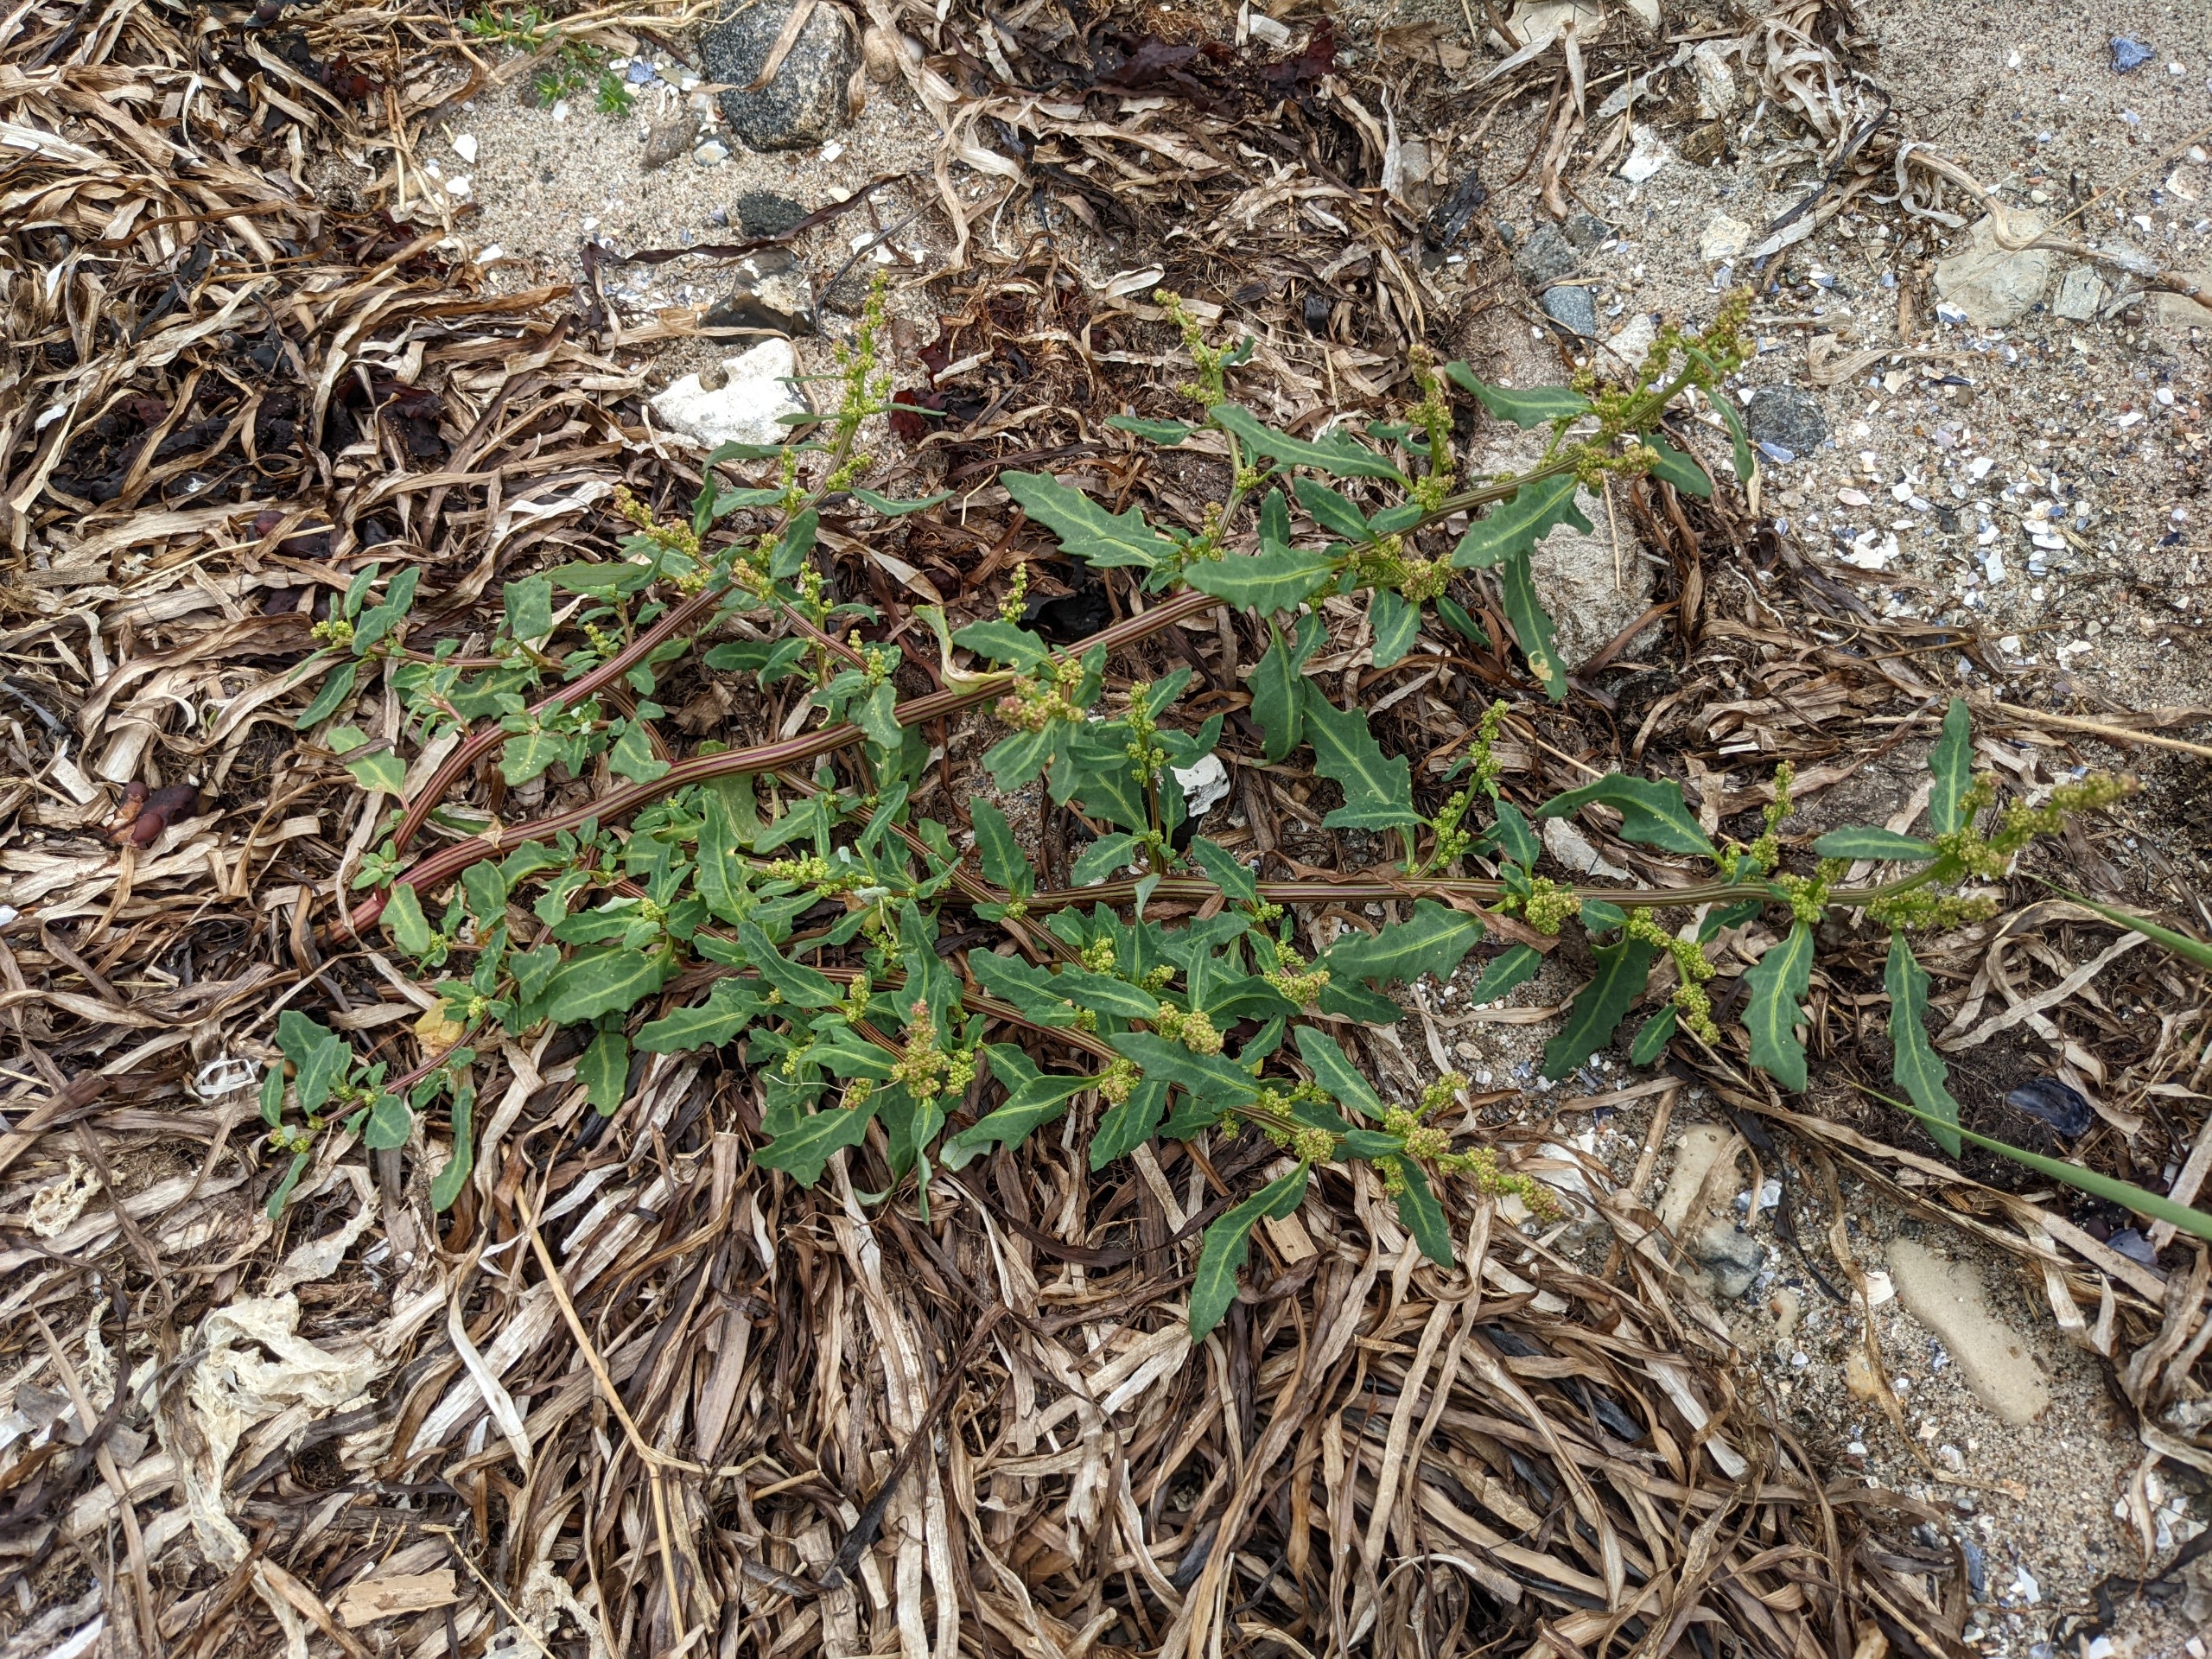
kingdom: Plantae
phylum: Tracheophyta
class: Magnoliopsida
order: Caryophyllales
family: Amaranthaceae
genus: Oxybasis
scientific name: Oxybasis glauca
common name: Blågrøn gåsefod
